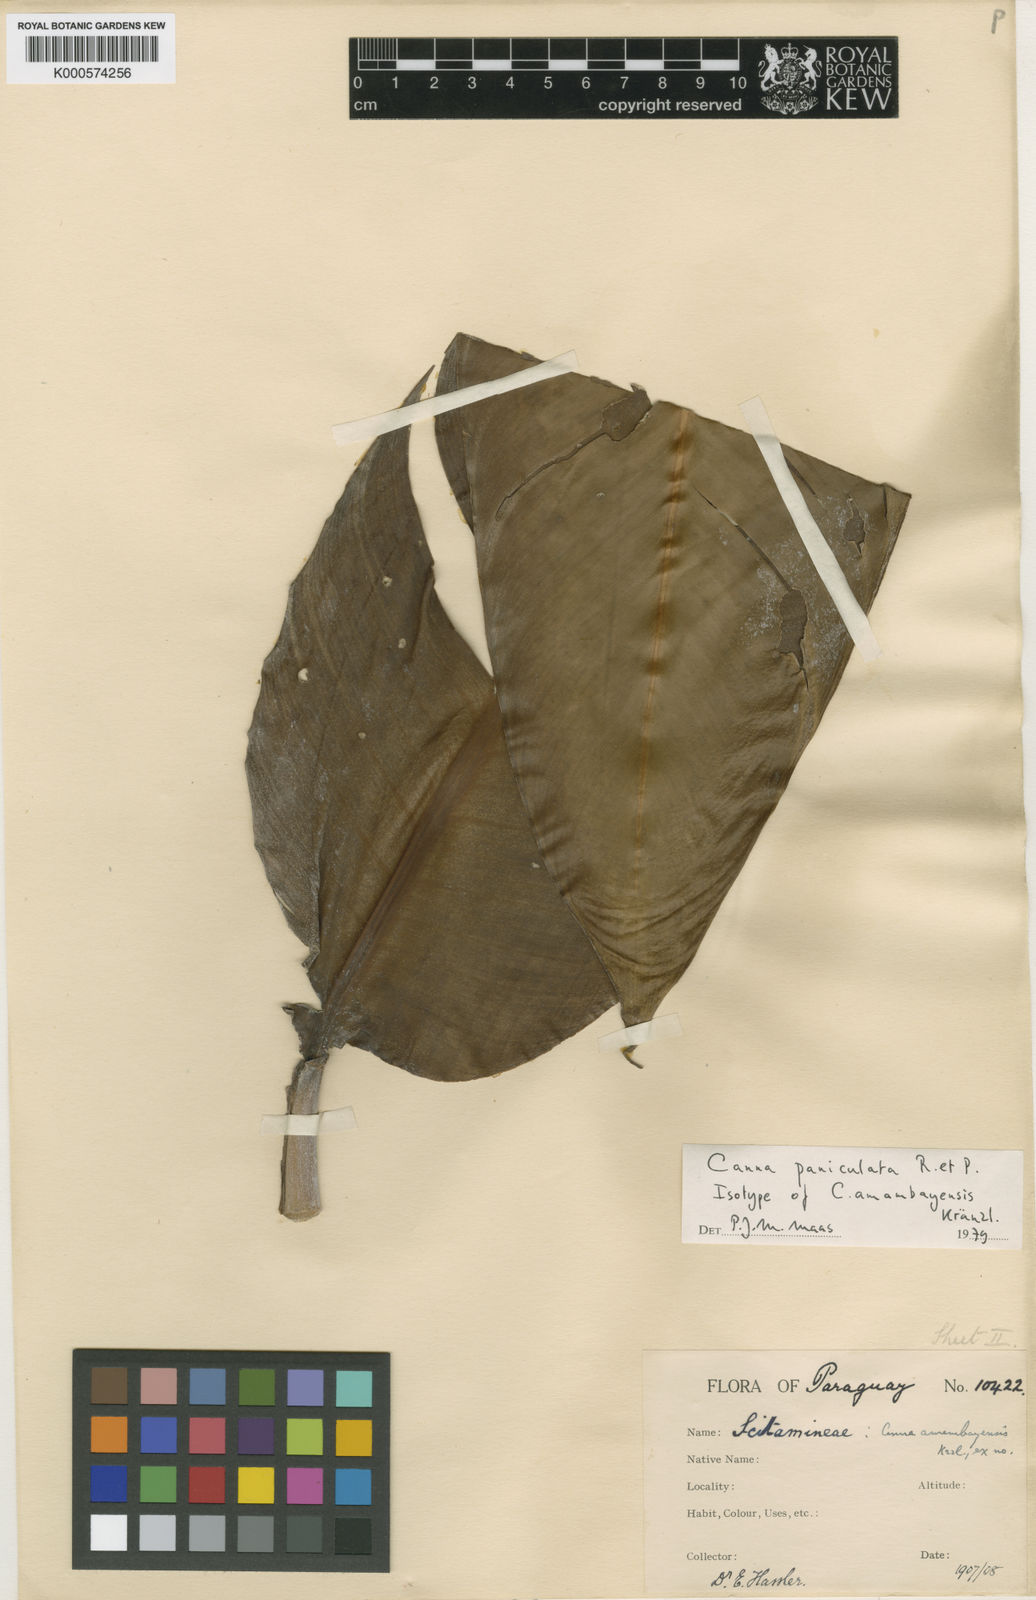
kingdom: Plantae
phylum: Tracheophyta
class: Liliopsida
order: Zingiberales
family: Cannaceae
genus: Canna
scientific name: Canna paniculata
